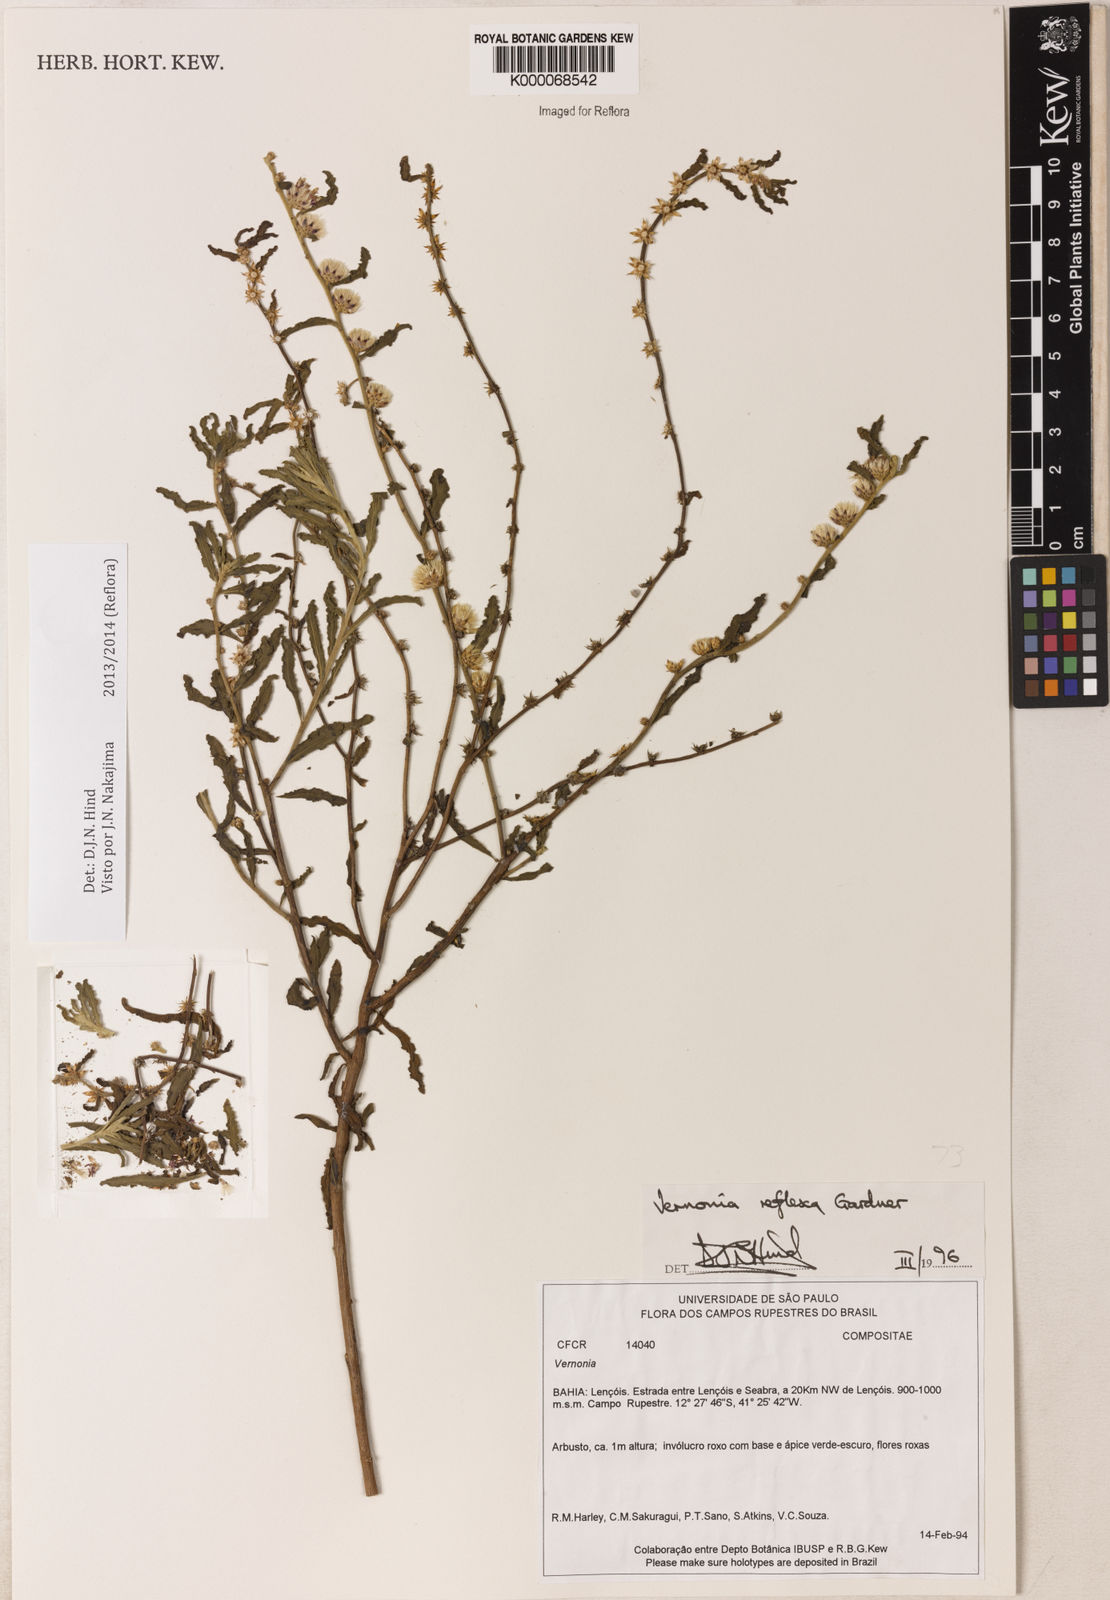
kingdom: Plantae
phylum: Tracheophyta
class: Magnoliopsida
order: Asterales
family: Asteraceae
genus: Lepidaploa
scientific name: Lepidaploa reflexa
